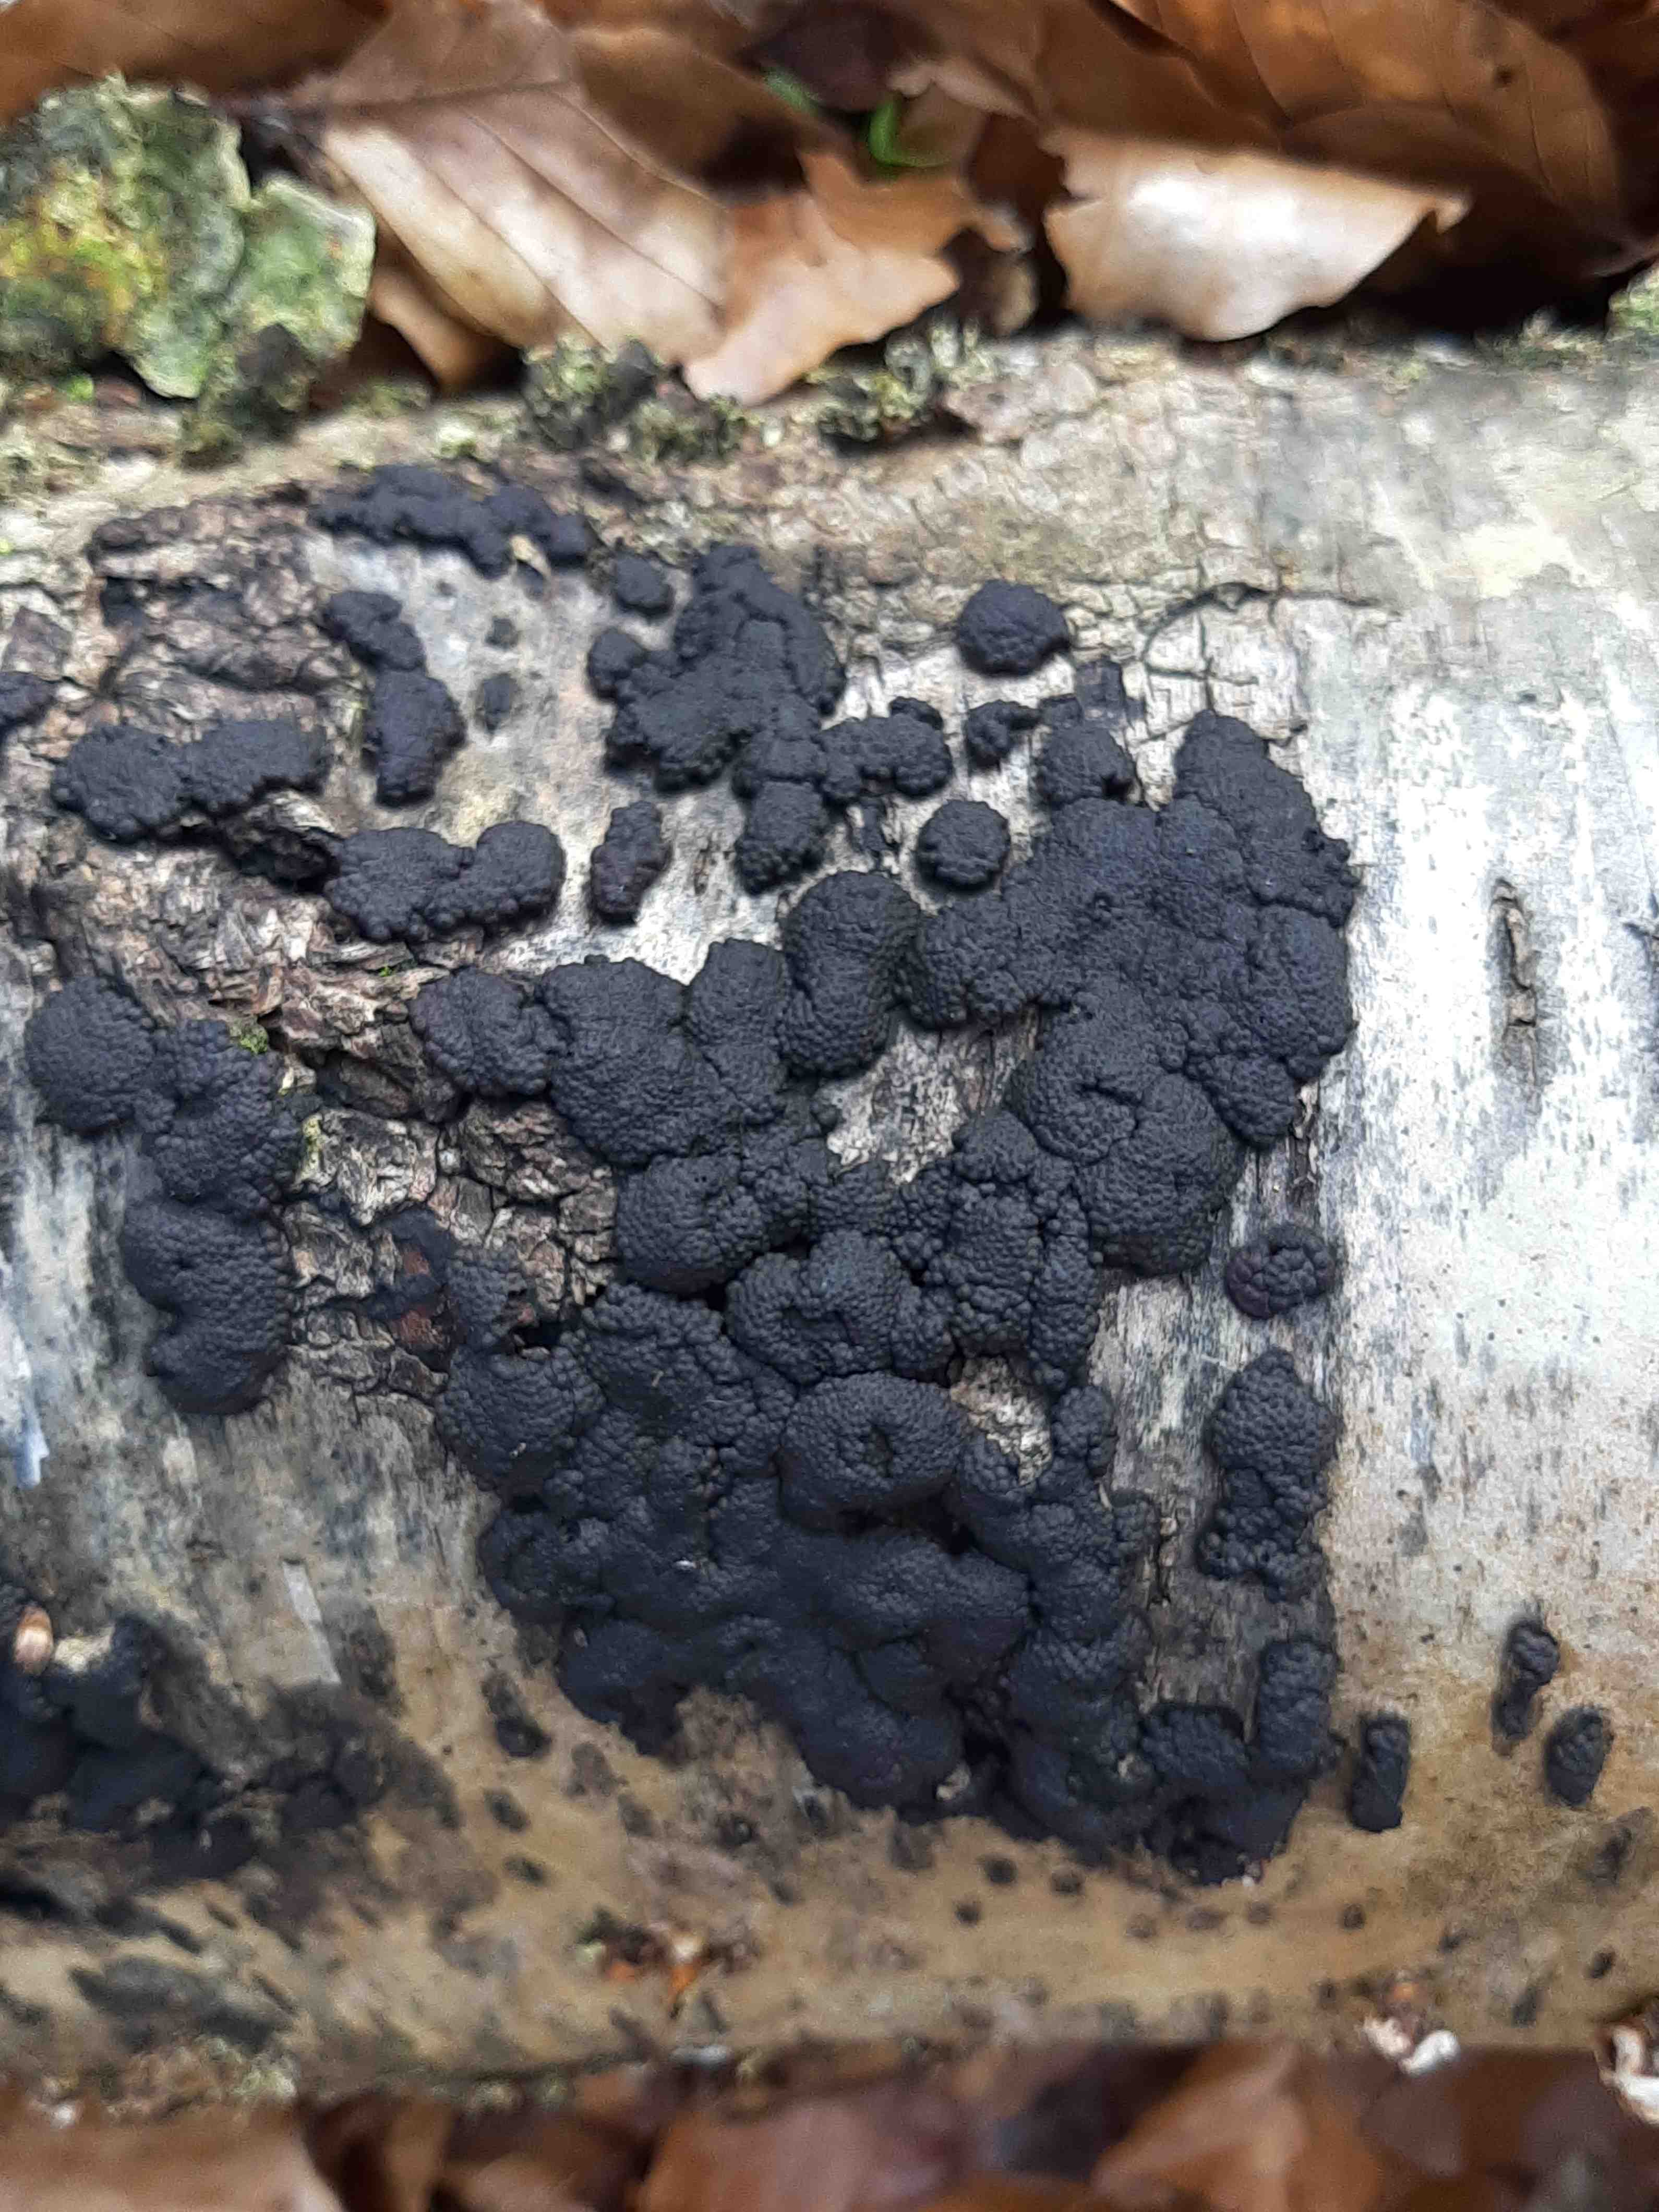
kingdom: Fungi
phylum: Ascomycota
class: Sordariomycetes
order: Xylariales
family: Hypoxylaceae
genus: Jackrogersella
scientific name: Jackrogersella multiformis
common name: foranderlig kulbær
